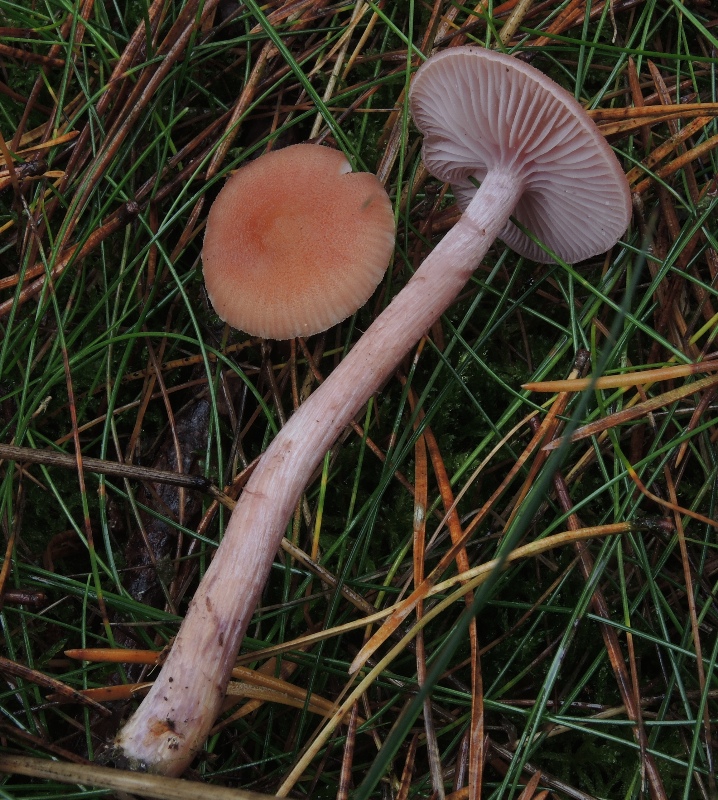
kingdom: Fungi
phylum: Basidiomycota
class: Agaricomycetes
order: Agaricales
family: Hydnangiaceae
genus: Laccaria
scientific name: Laccaria bicolor
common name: tvefarvet ametysthat
